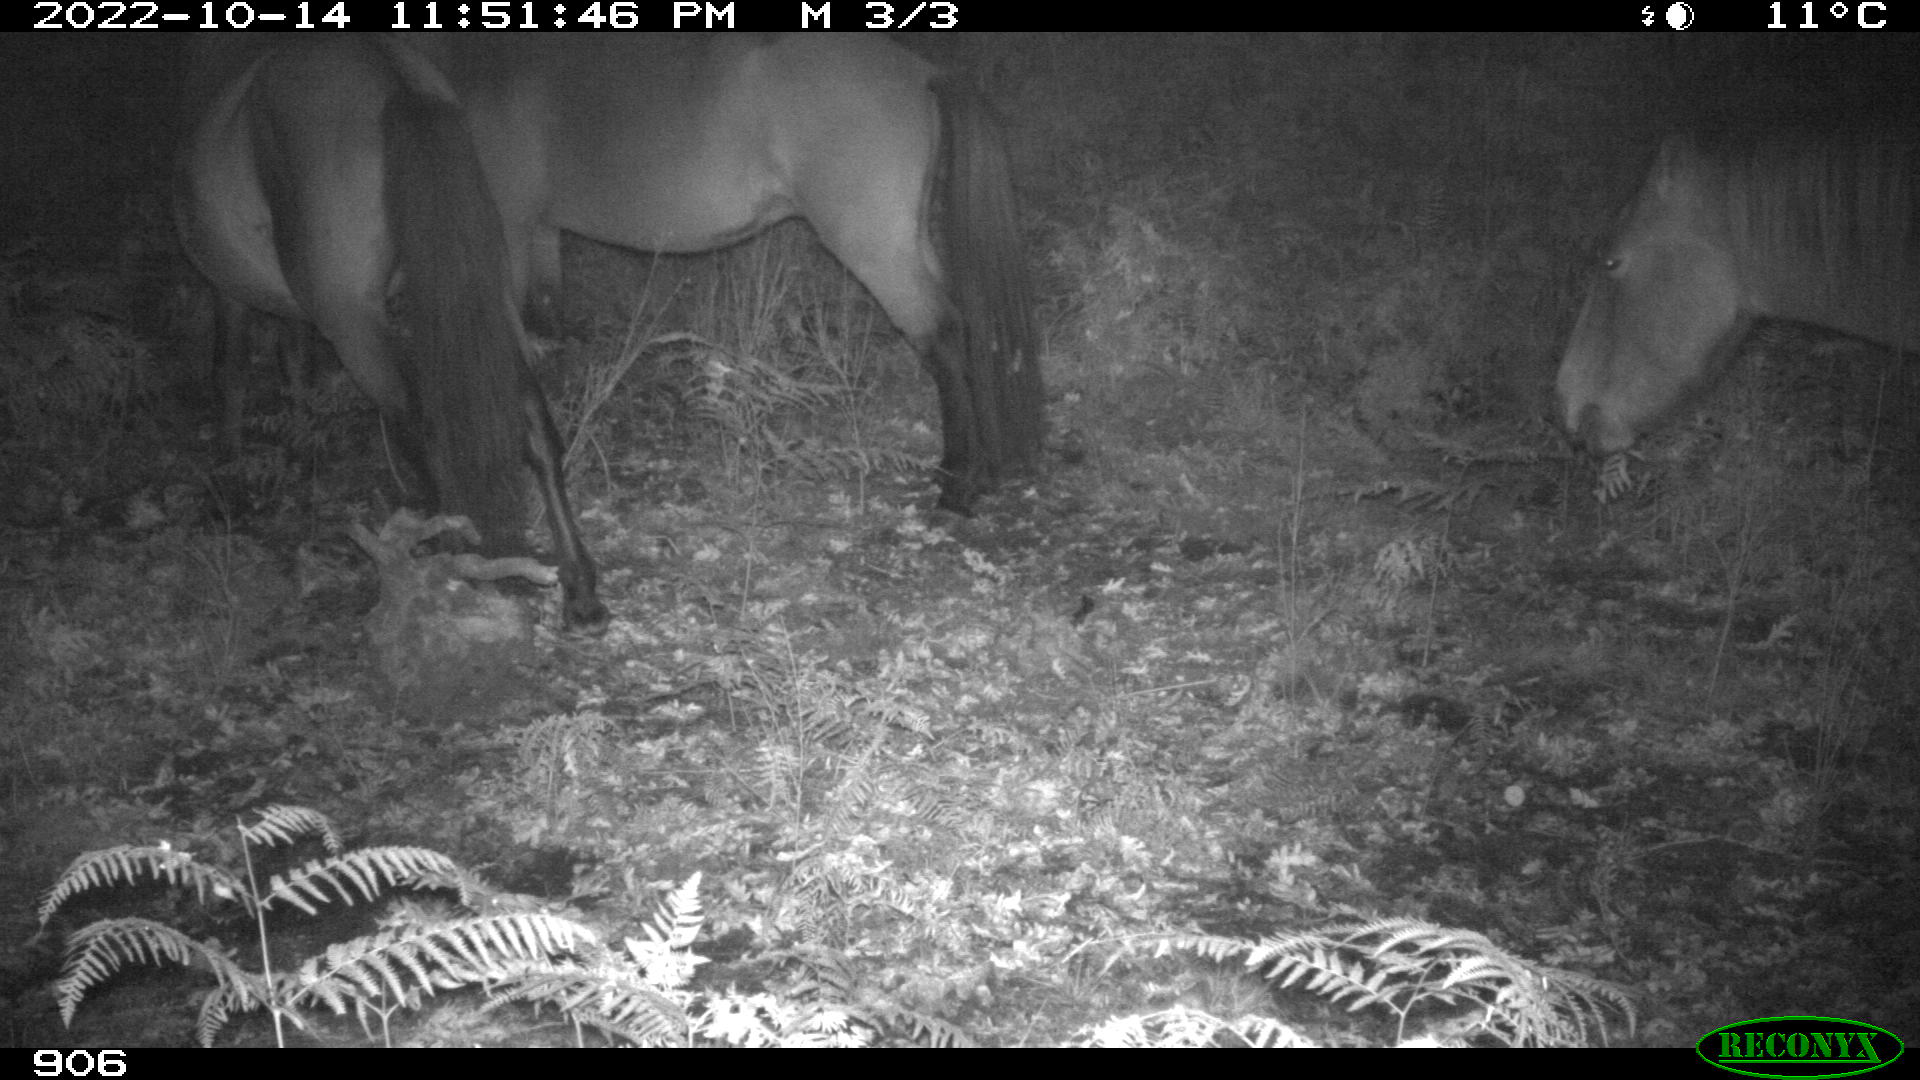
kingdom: Animalia
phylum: Chordata
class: Mammalia
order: Perissodactyla
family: Equidae
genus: Equus
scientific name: Equus caballus
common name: Horse
